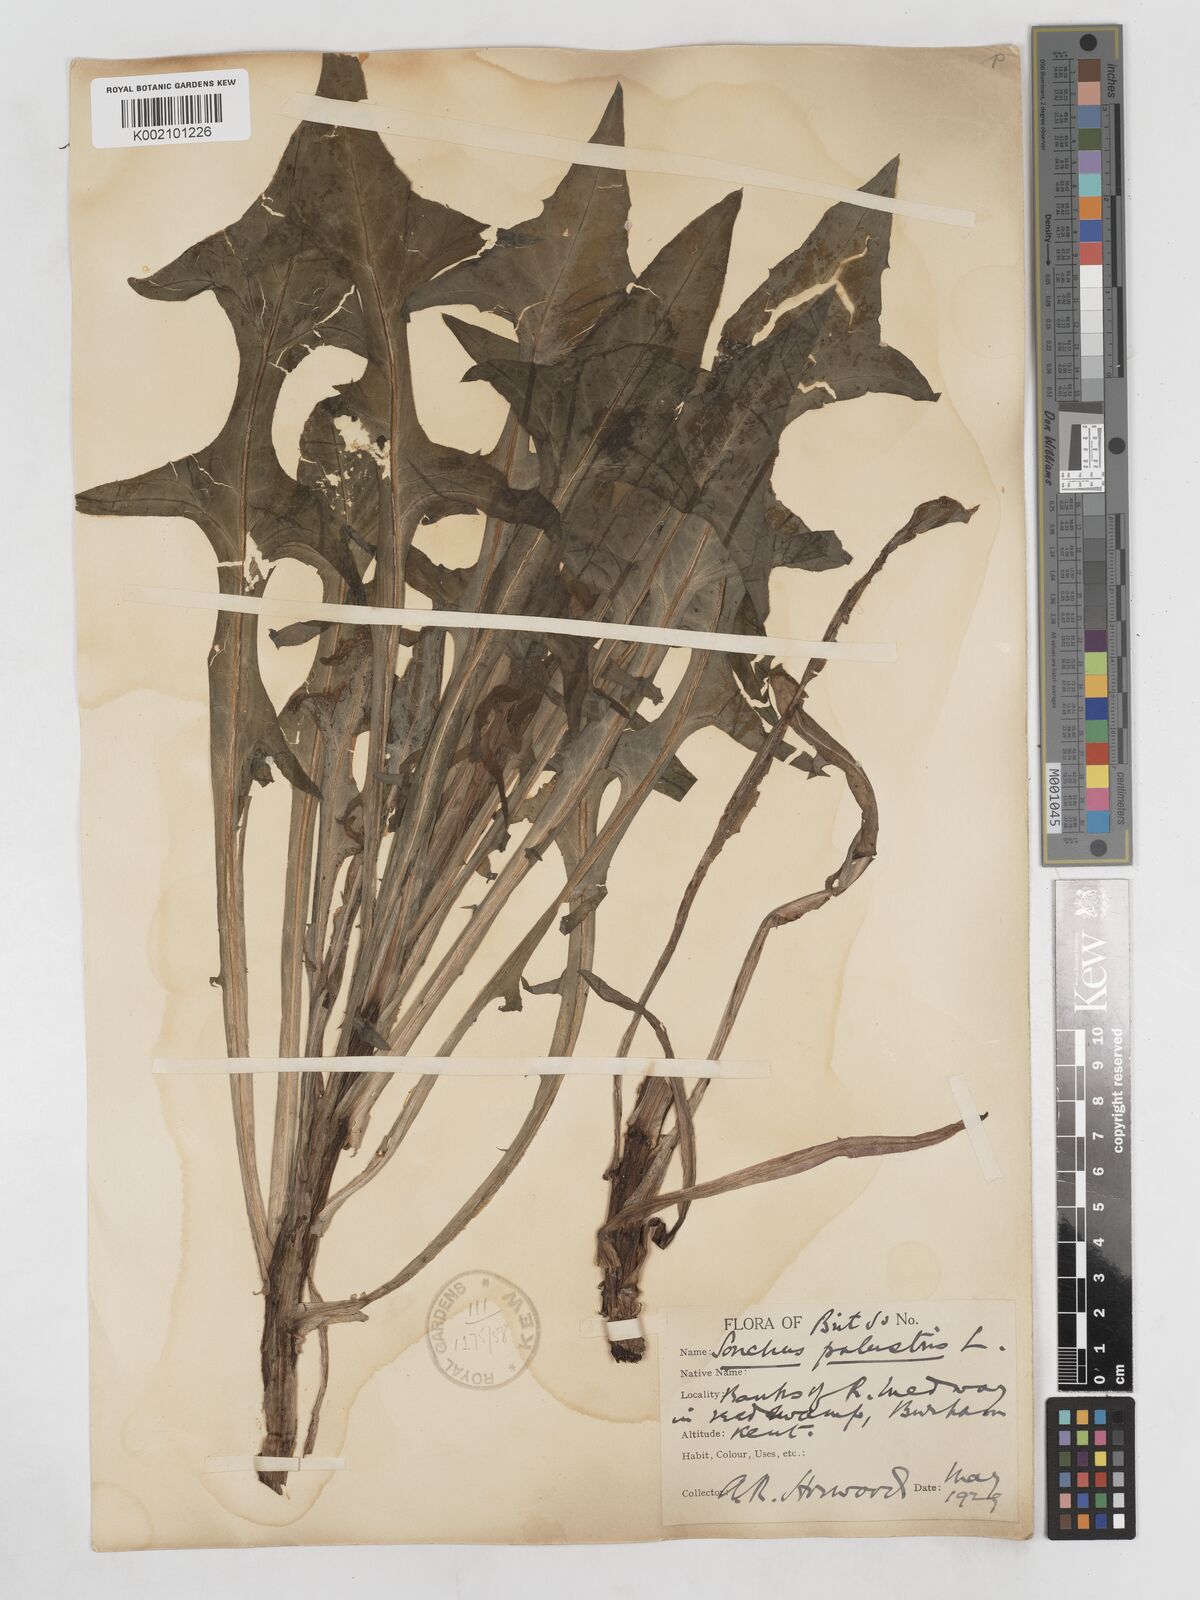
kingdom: Plantae
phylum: Tracheophyta
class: Magnoliopsida
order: Asterales
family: Asteraceae
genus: Sonchus
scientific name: Sonchus palustris
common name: Marsh sow-thistle
